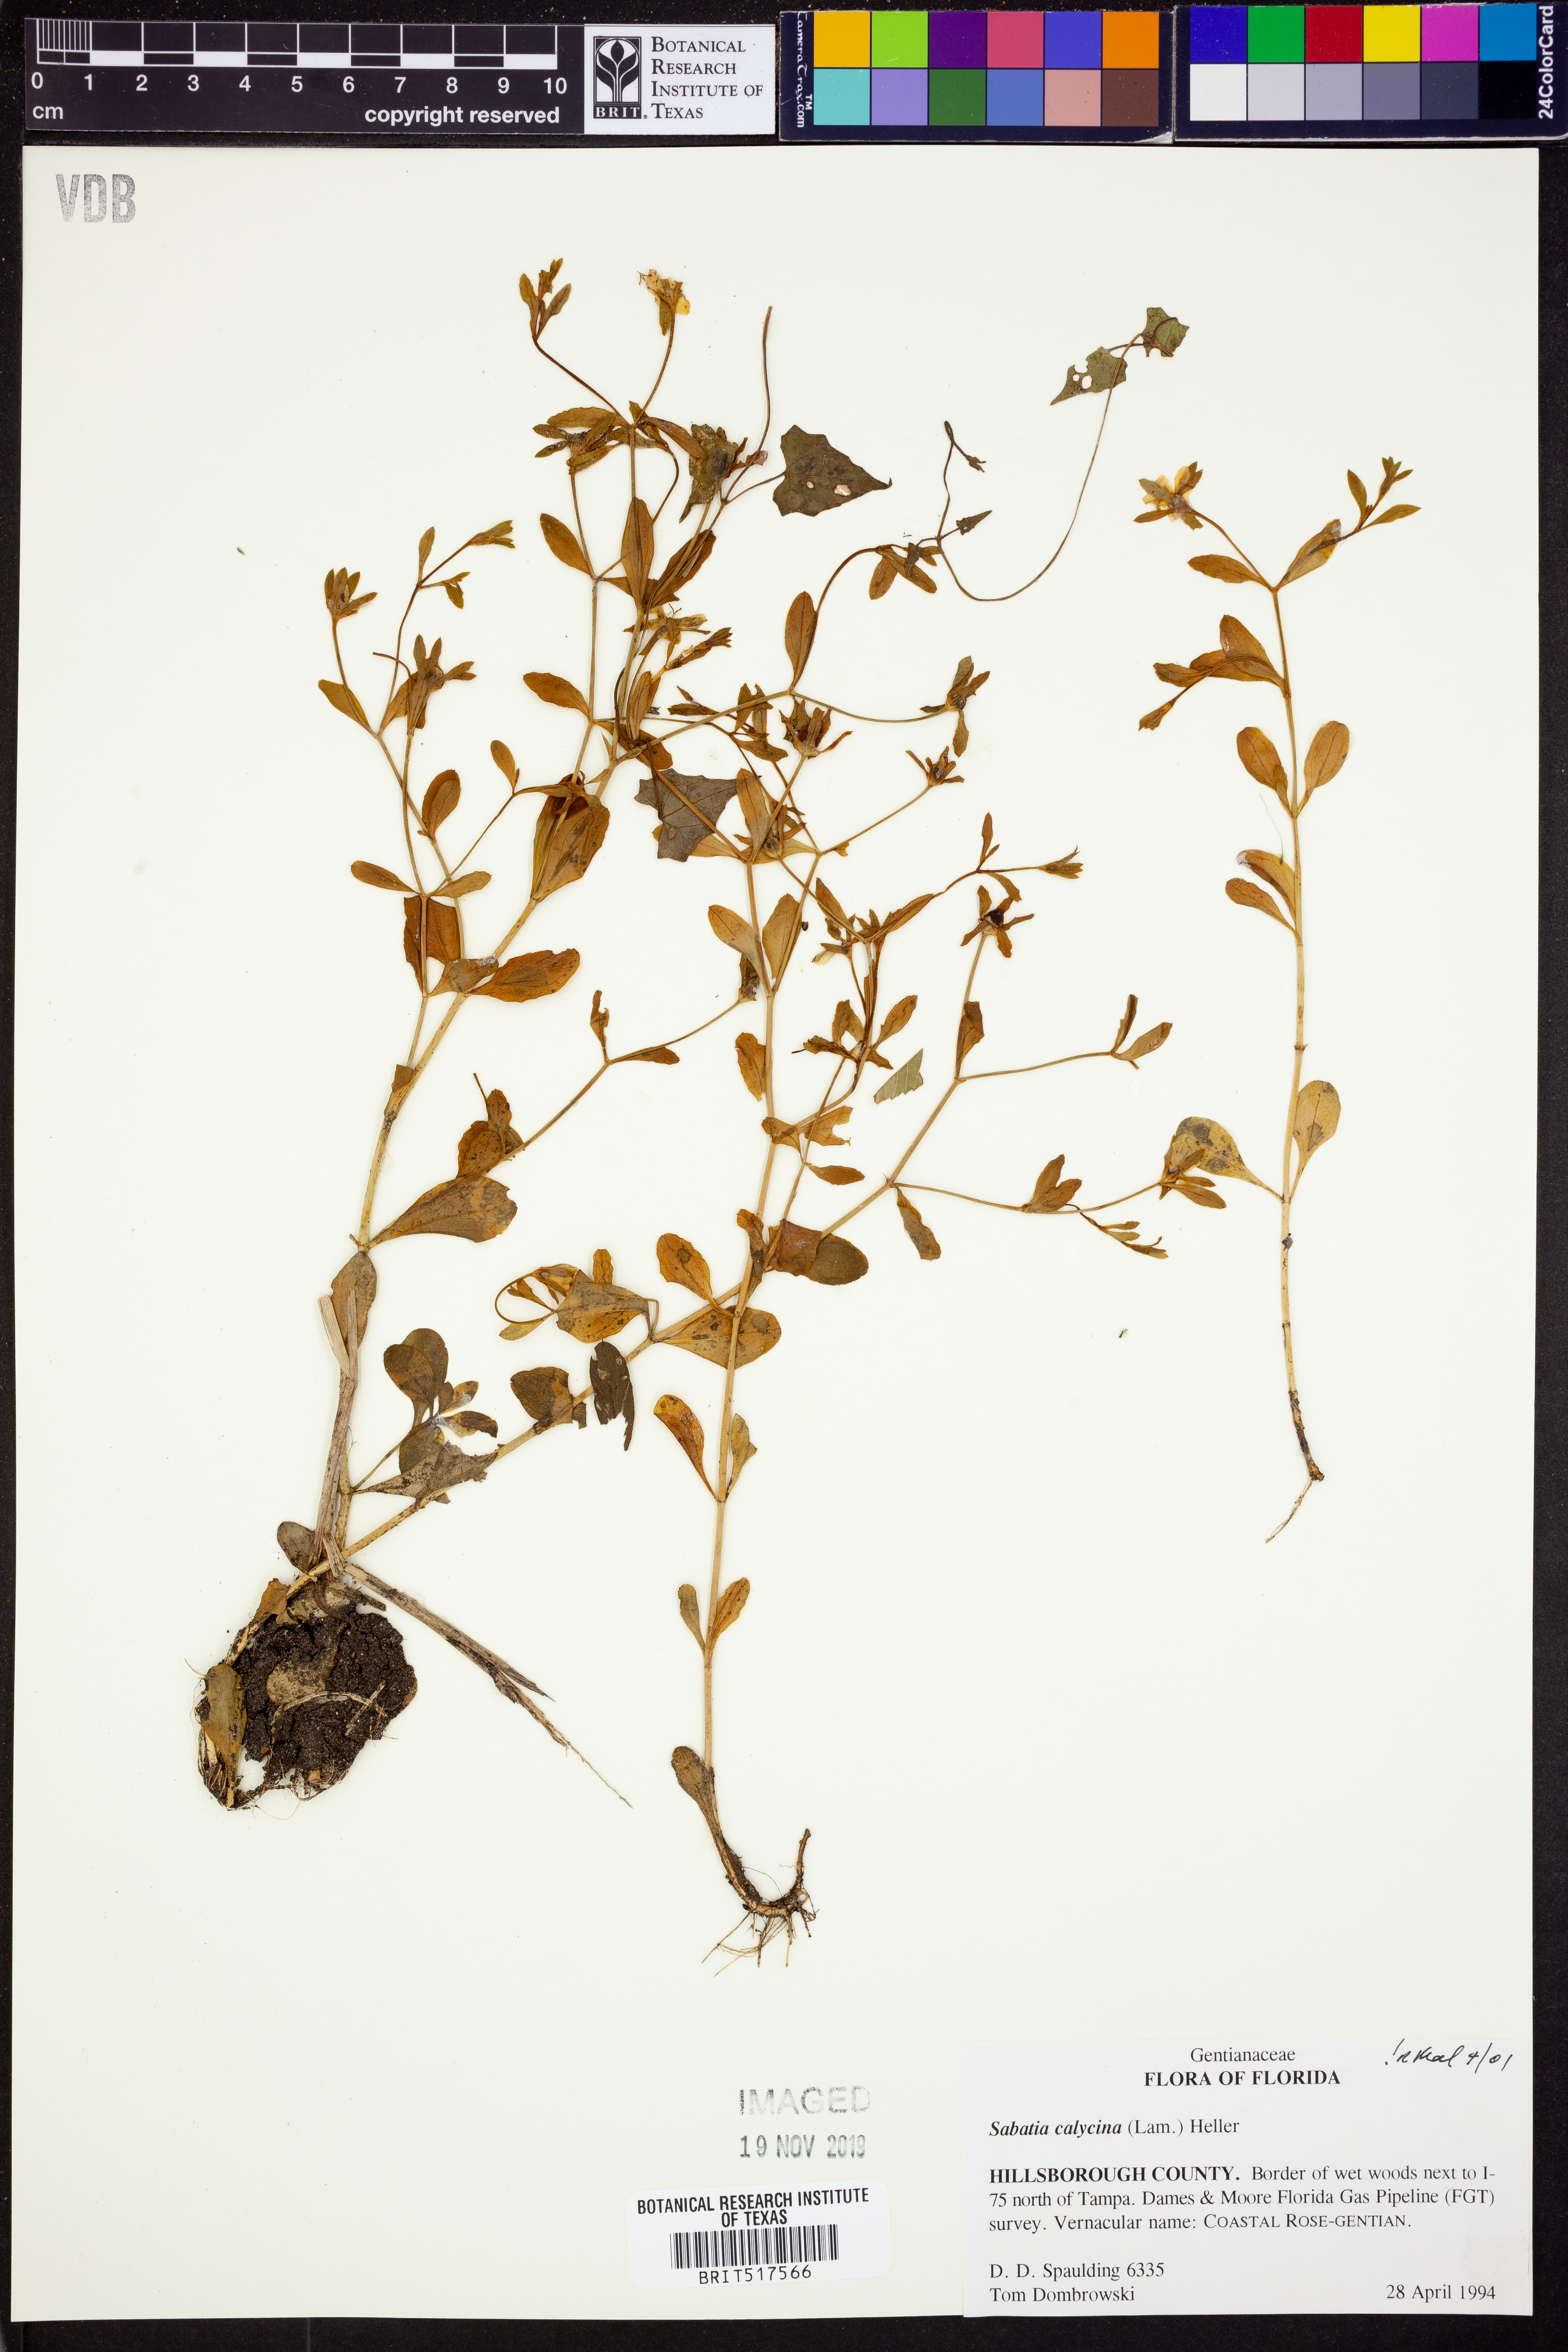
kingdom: Plantae
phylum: Tracheophyta
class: Magnoliopsida
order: Gentianales
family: Gentianaceae
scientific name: Gentianaceae
